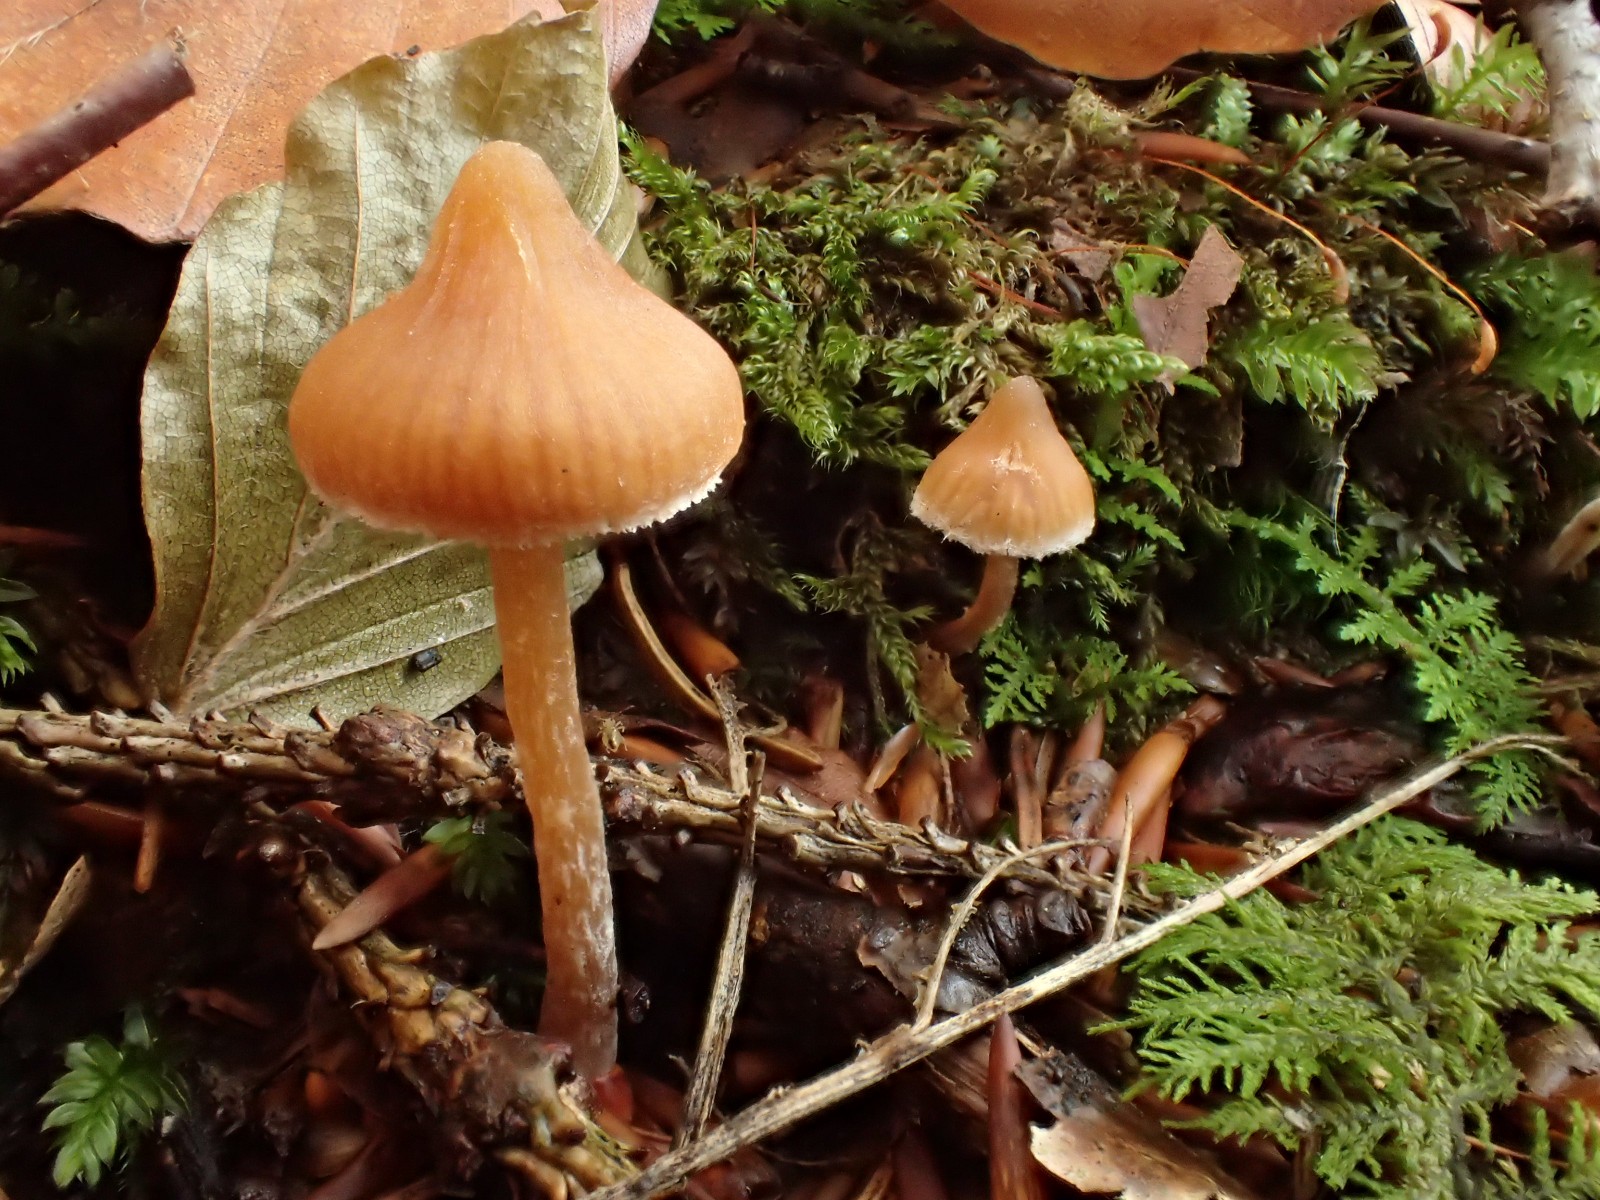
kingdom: Fungi
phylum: Basidiomycota
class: Agaricomycetes
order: Agaricales
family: Cortinariaceae
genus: Cortinarius
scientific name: Cortinarius acutus
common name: spids slørhat
